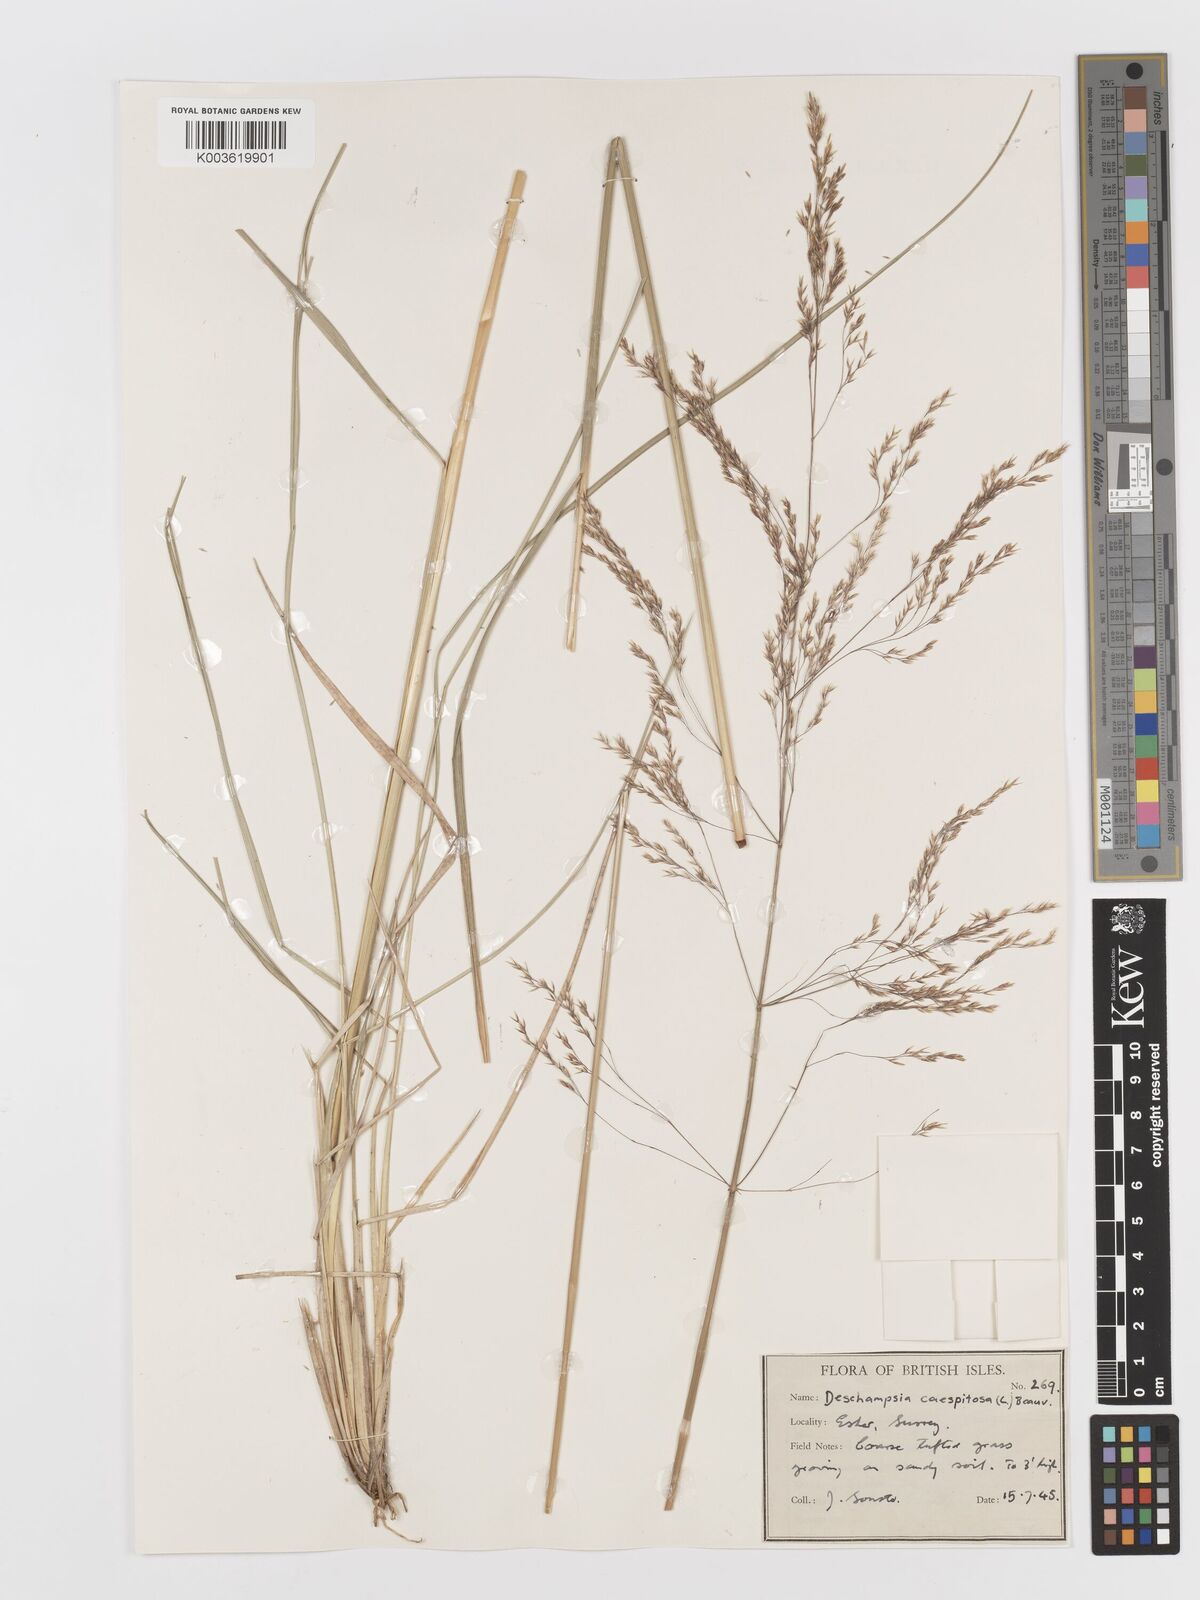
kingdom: Plantae
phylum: Tracheophyta
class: Liliopsida
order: Poales
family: Poaceae
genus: Deschampsia
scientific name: Deschampsia
